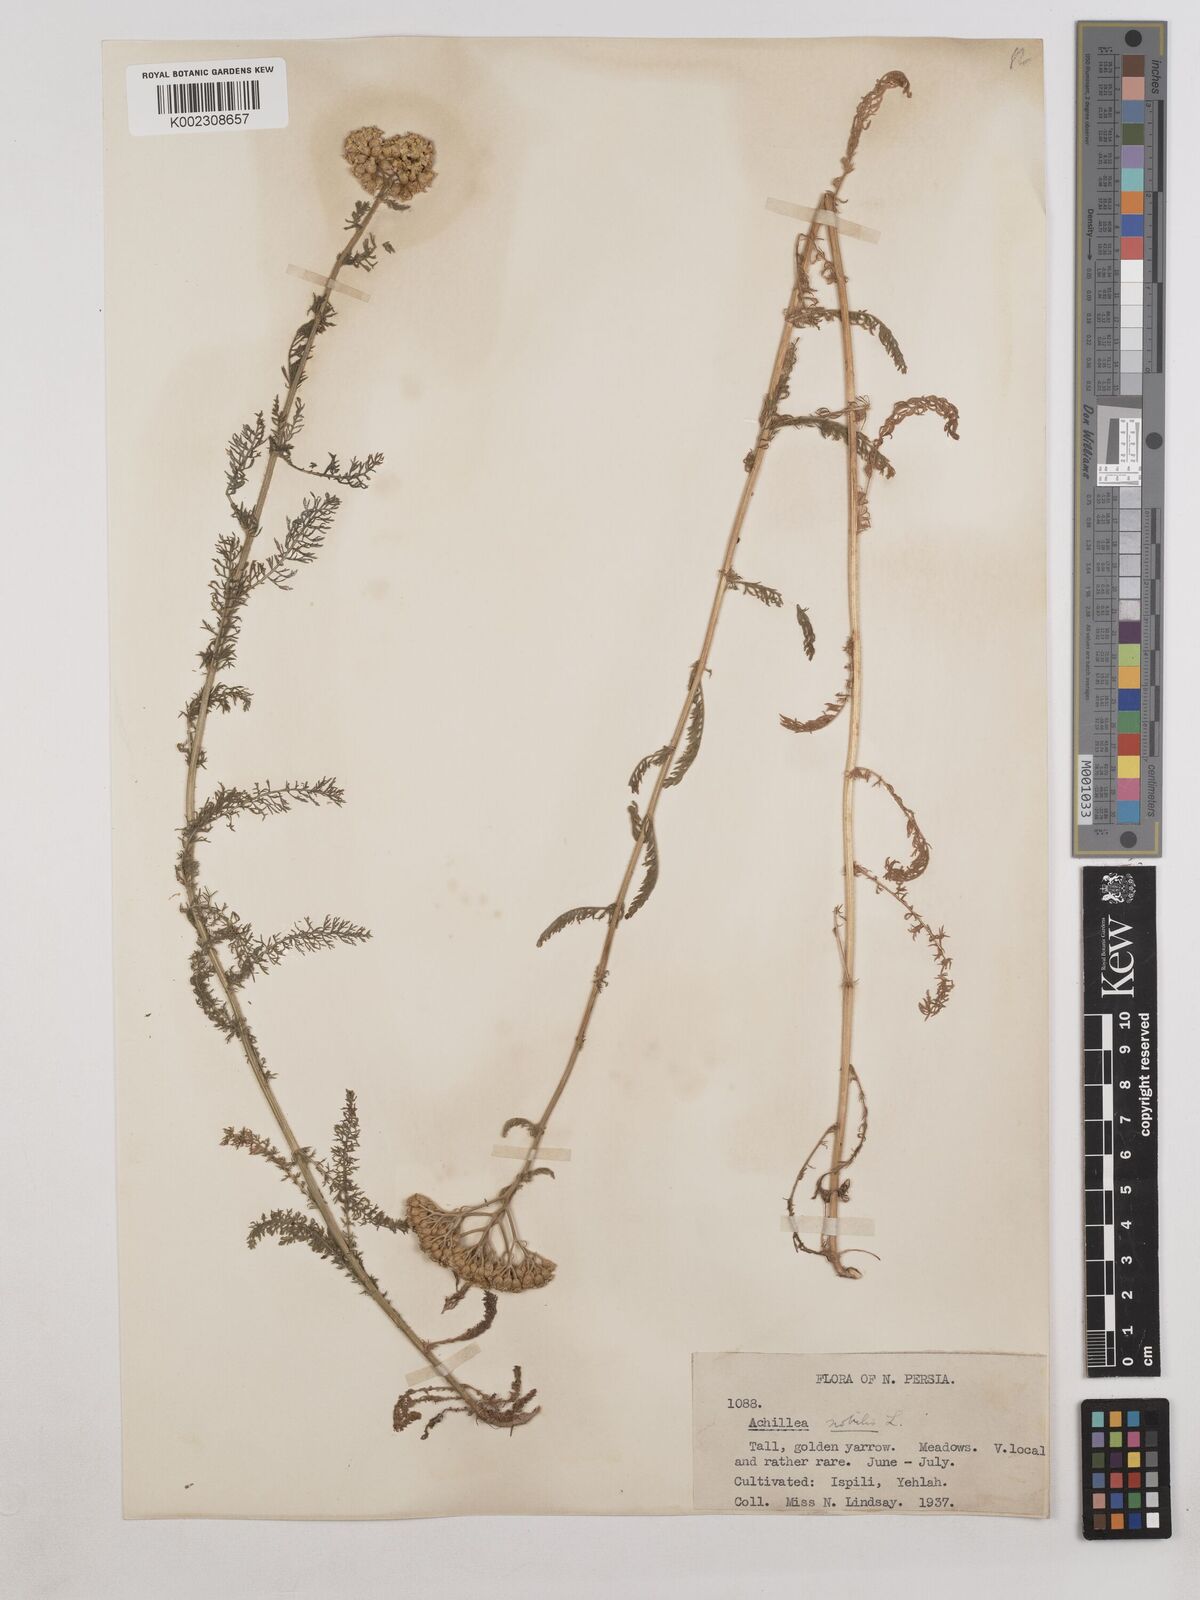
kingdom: Plantae
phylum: Tracheophyta
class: Magnoliopsida
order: Asterales
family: Asteraceae
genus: Achillea
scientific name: Achillea nobilis
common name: Noble yarrow
